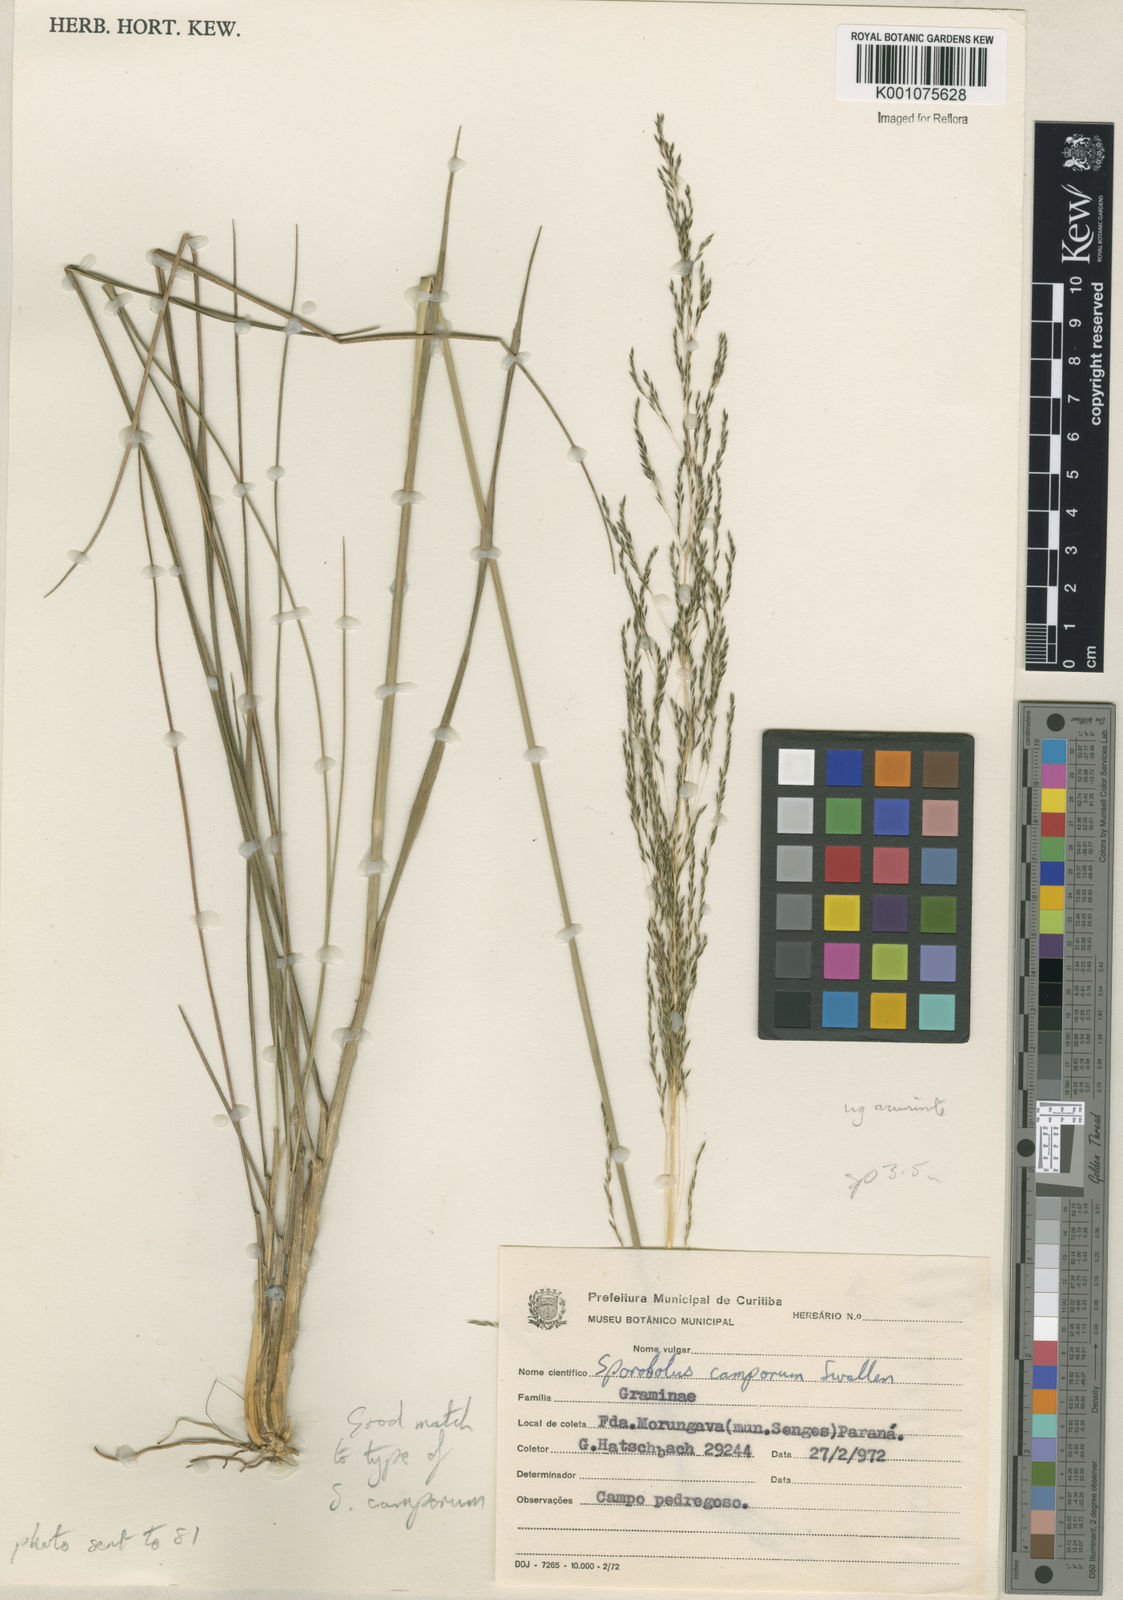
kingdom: Plantae
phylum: Tracheophyta
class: Liliopsida
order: Poales
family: Poaceae
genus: Sporobolus
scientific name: Sporobolus camporum
